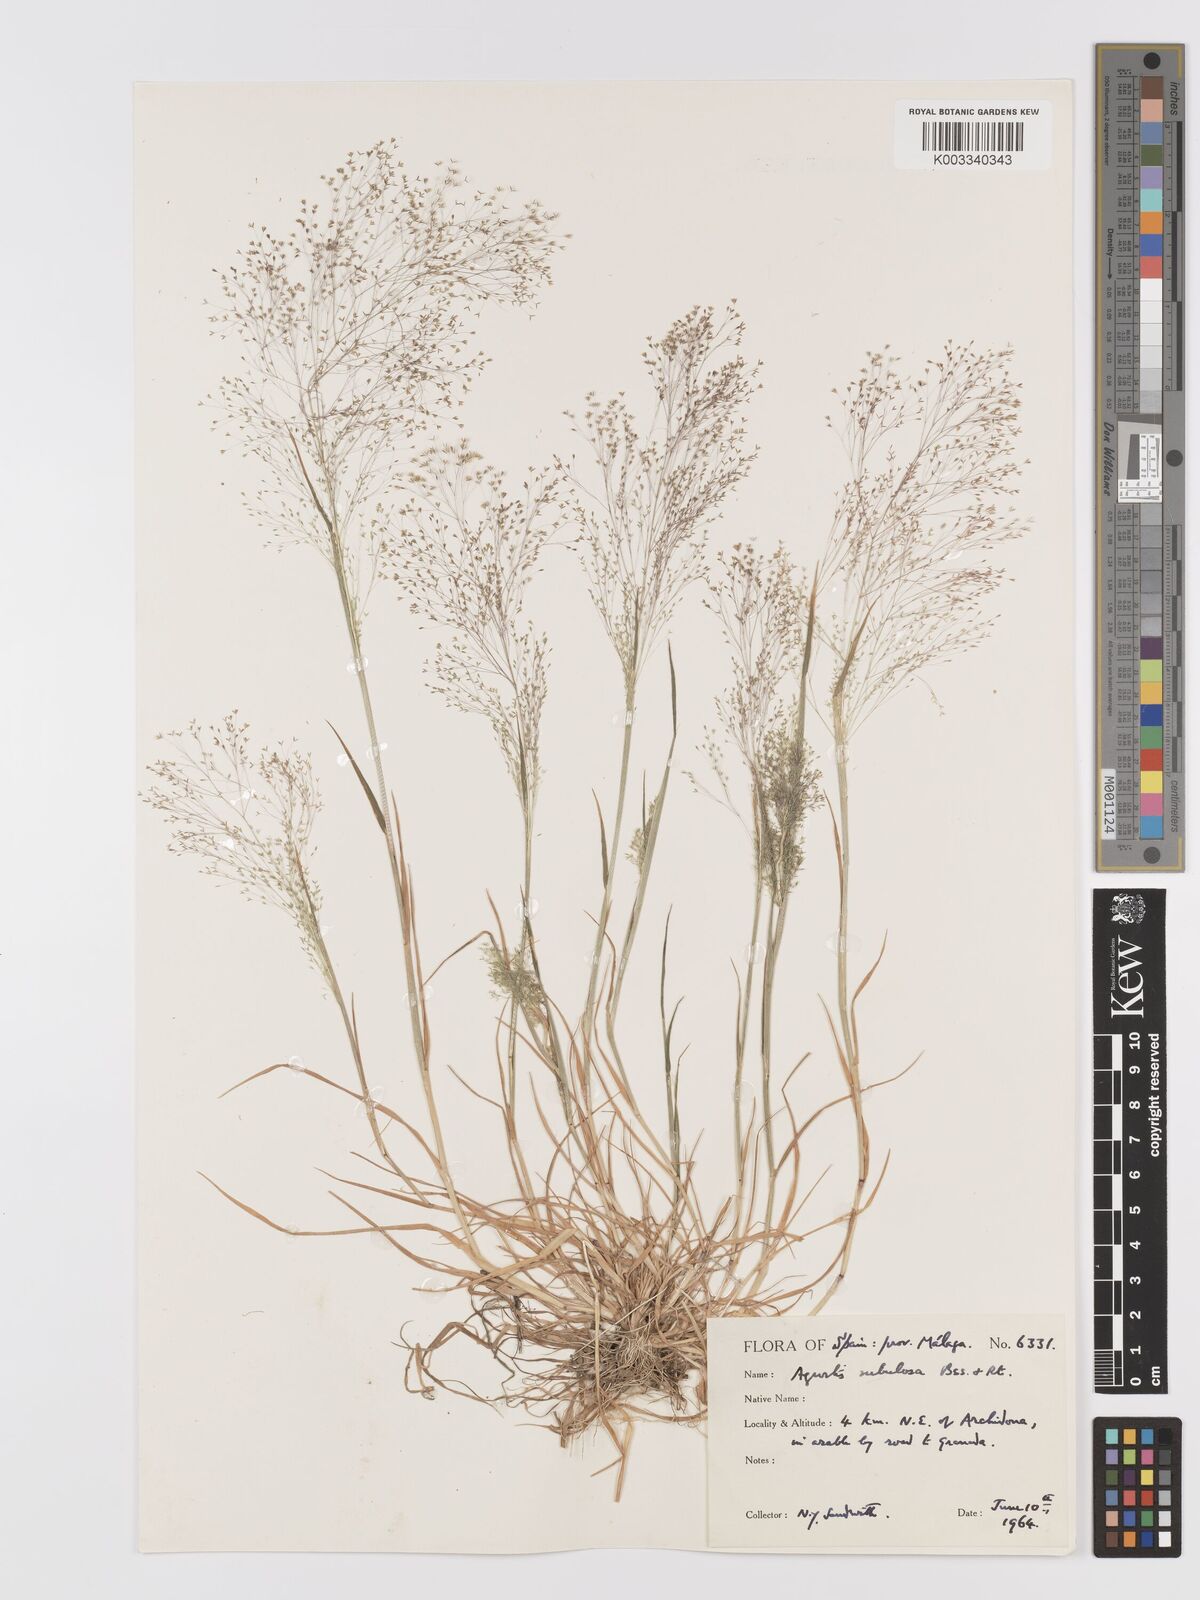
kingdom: Plantae
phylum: Tracheophyta
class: Liliopsida
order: Poales
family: Poaceae
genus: Agrostis
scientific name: Agrostis nebulosa
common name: Cloud grass
